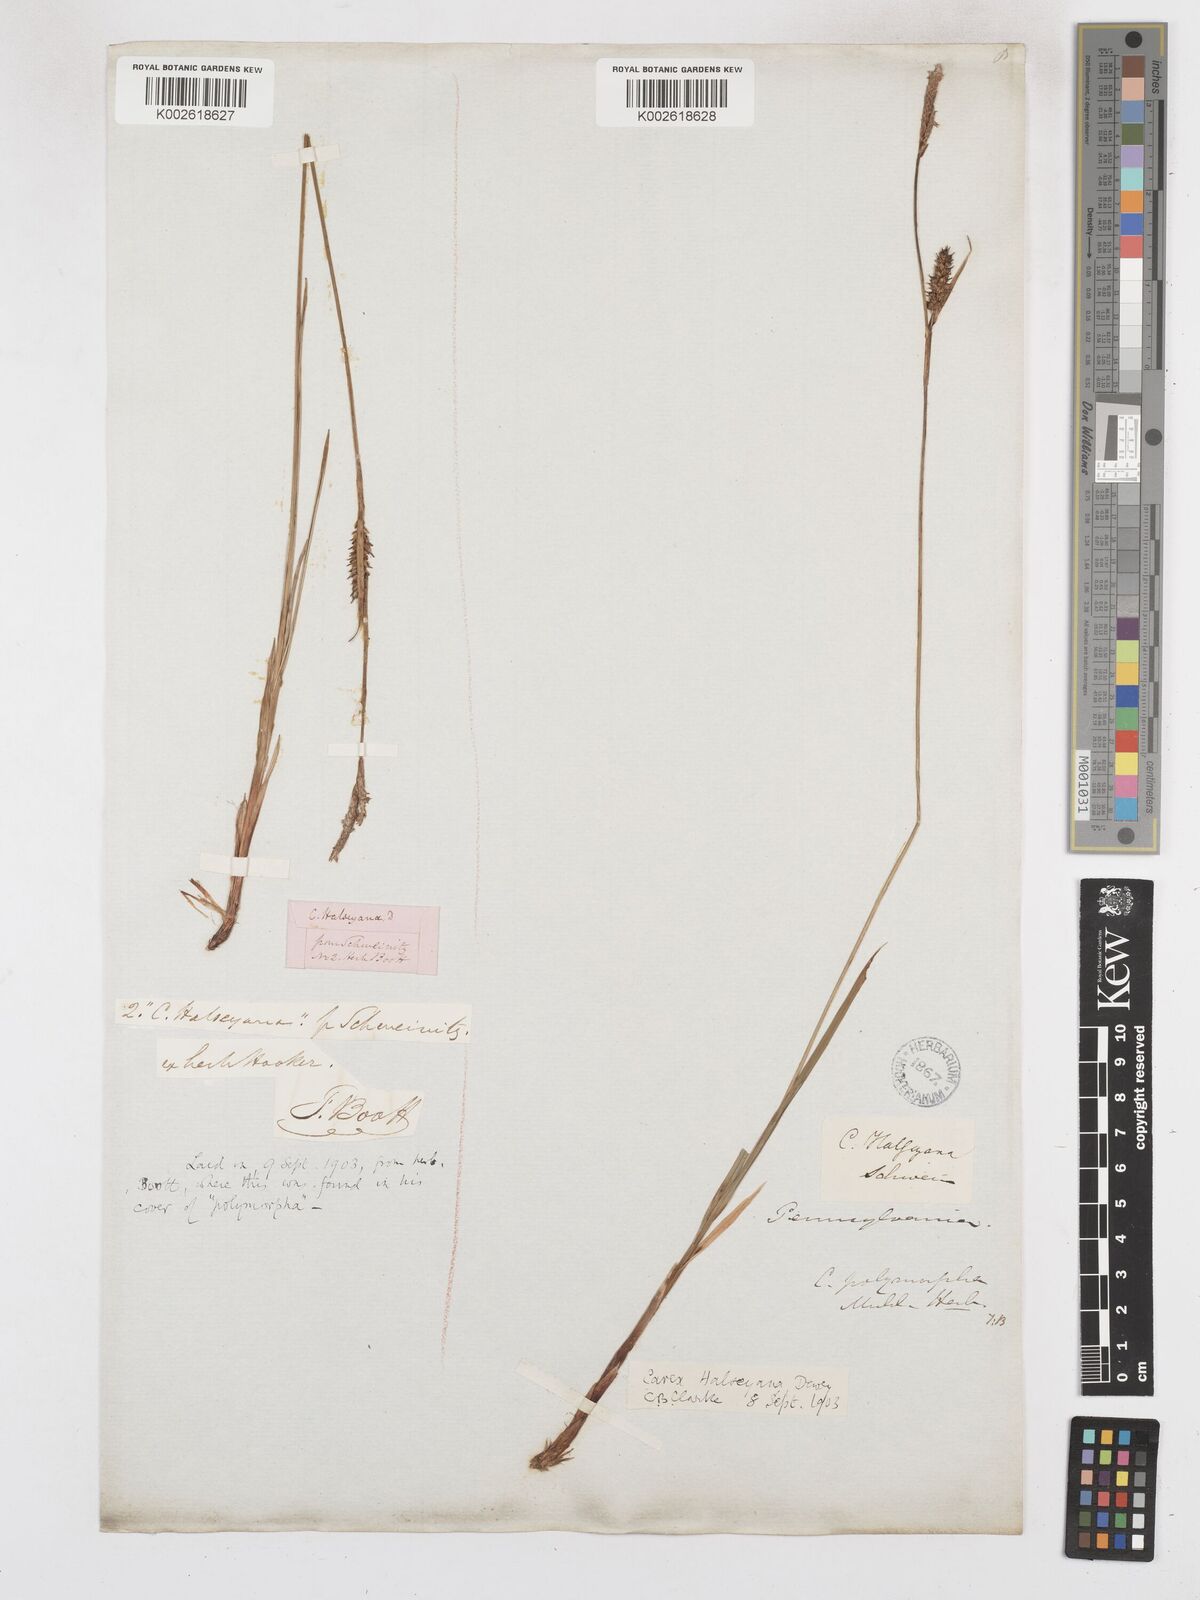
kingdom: Plantae
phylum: Tracheophyta
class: Liliopsida
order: Poales
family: Cyperaceae
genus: Carex
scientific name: Carex polymorpha
